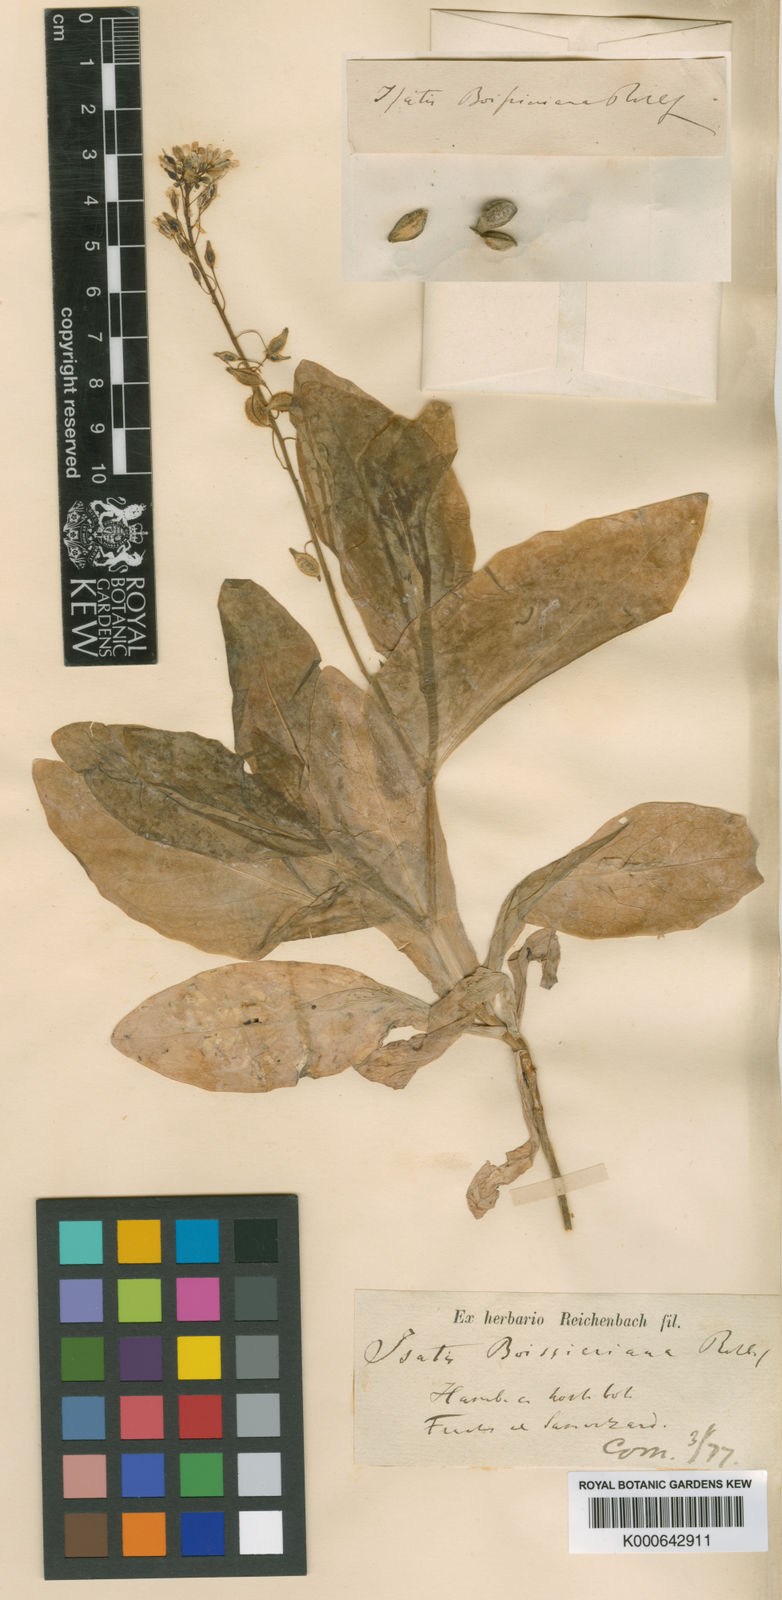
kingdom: Plantae
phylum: Tracheophyta
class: Magnoliopsida
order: Brassicales
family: Brassicaceae
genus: Isatis
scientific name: Isatis boissieriana
